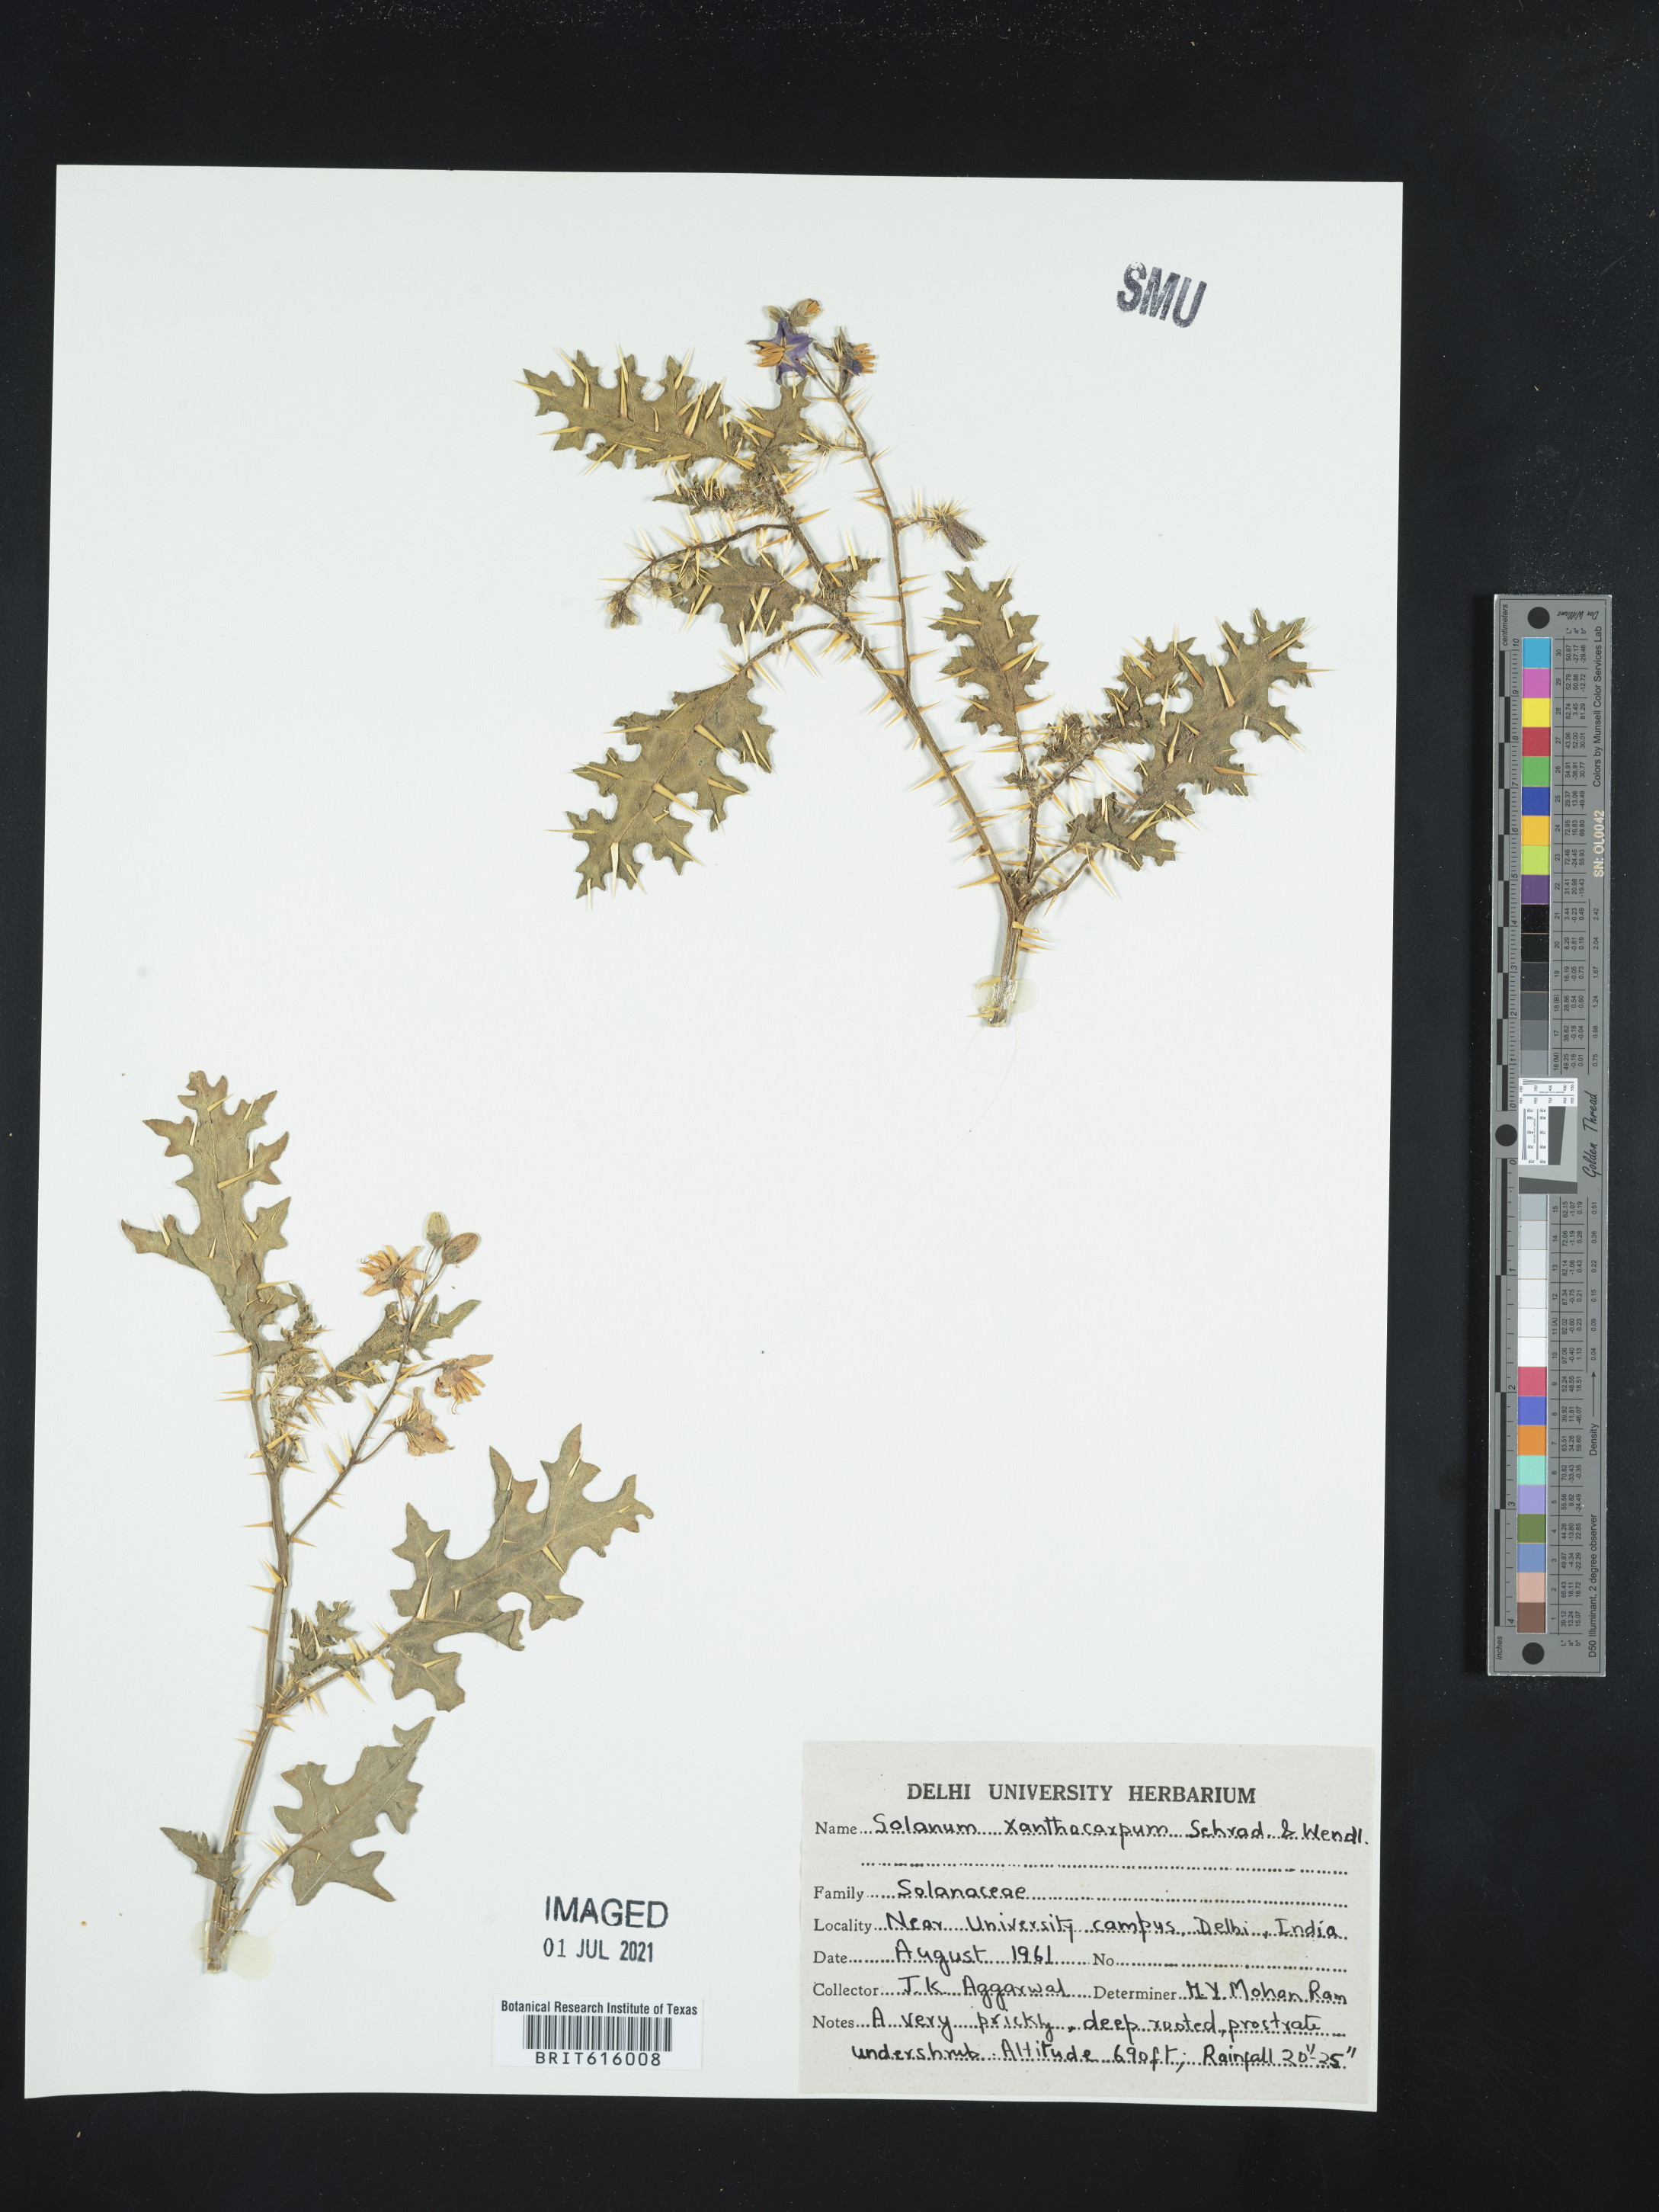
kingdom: Plantae
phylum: Tracheophyta
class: Magnoliopsida
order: Solanales
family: Solanaceae
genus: Solanum
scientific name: Solanum
